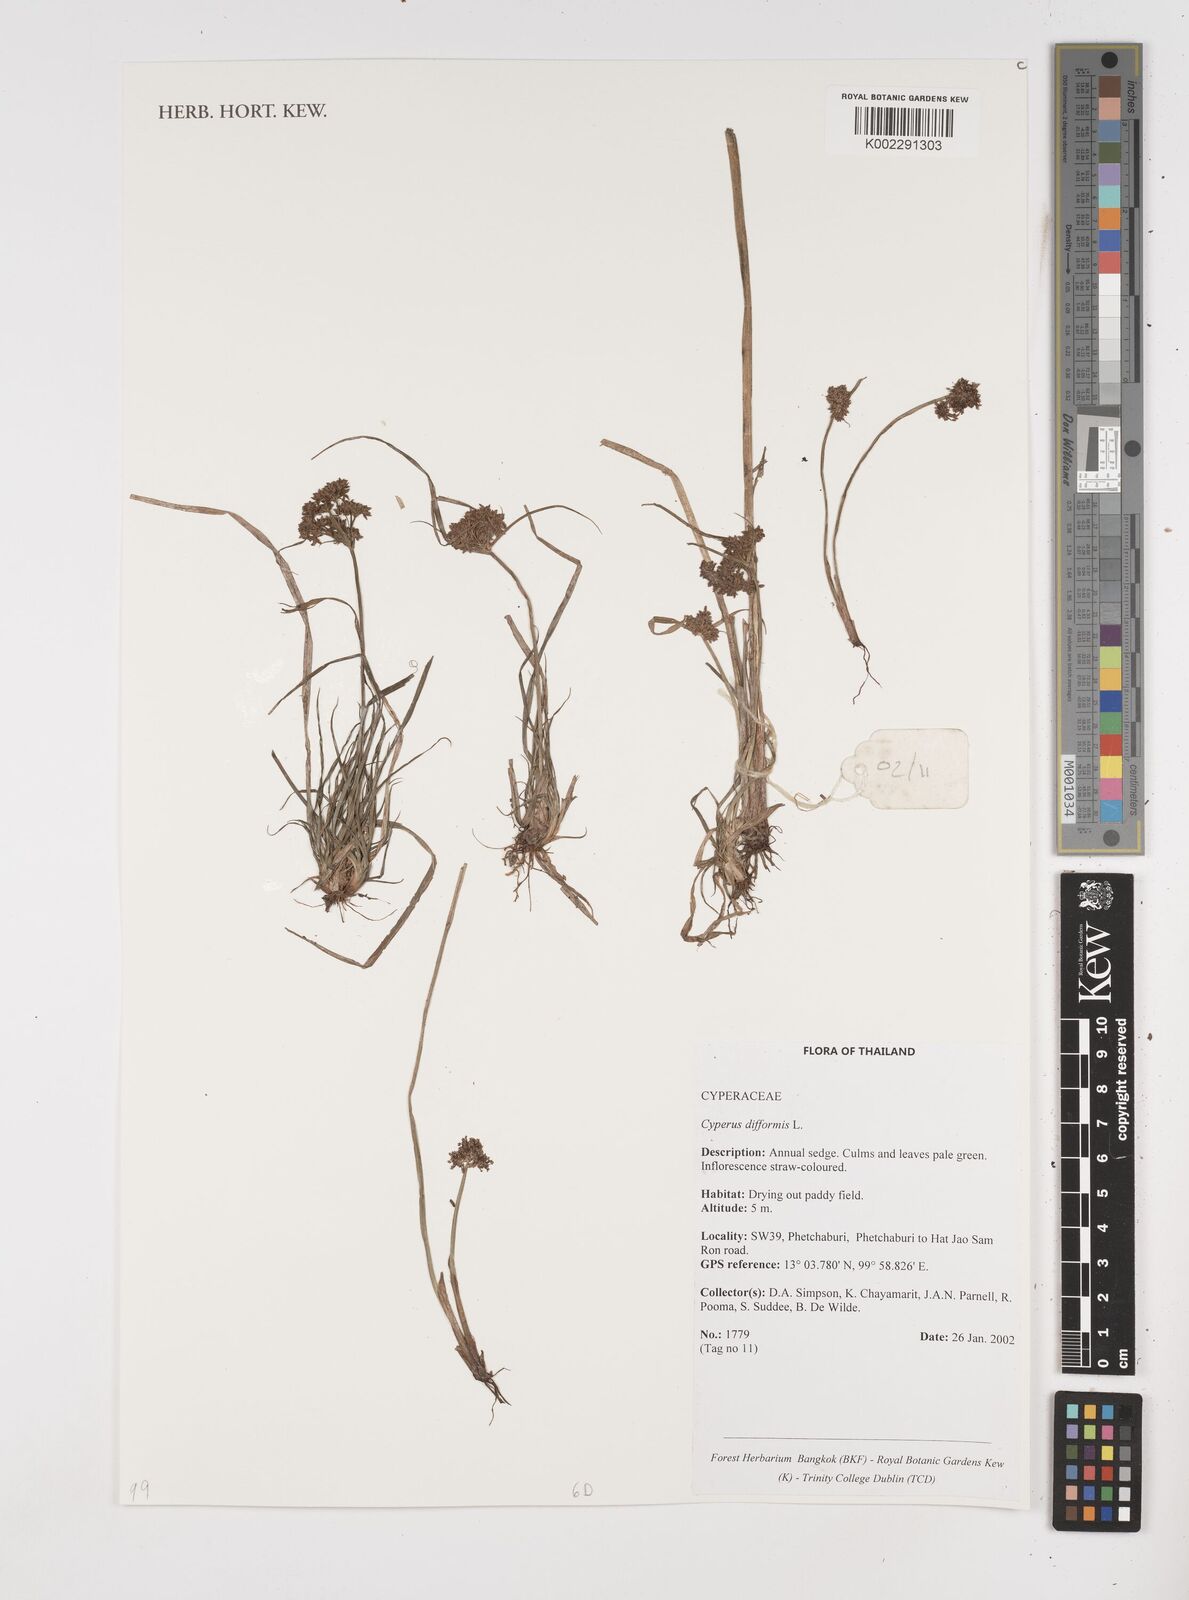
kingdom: Plantae
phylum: Tracheophyta
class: Liliopsida
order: Poales
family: Cyperaceae
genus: Cyperus
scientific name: Cyperus difformis
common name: Variable flatsedge
